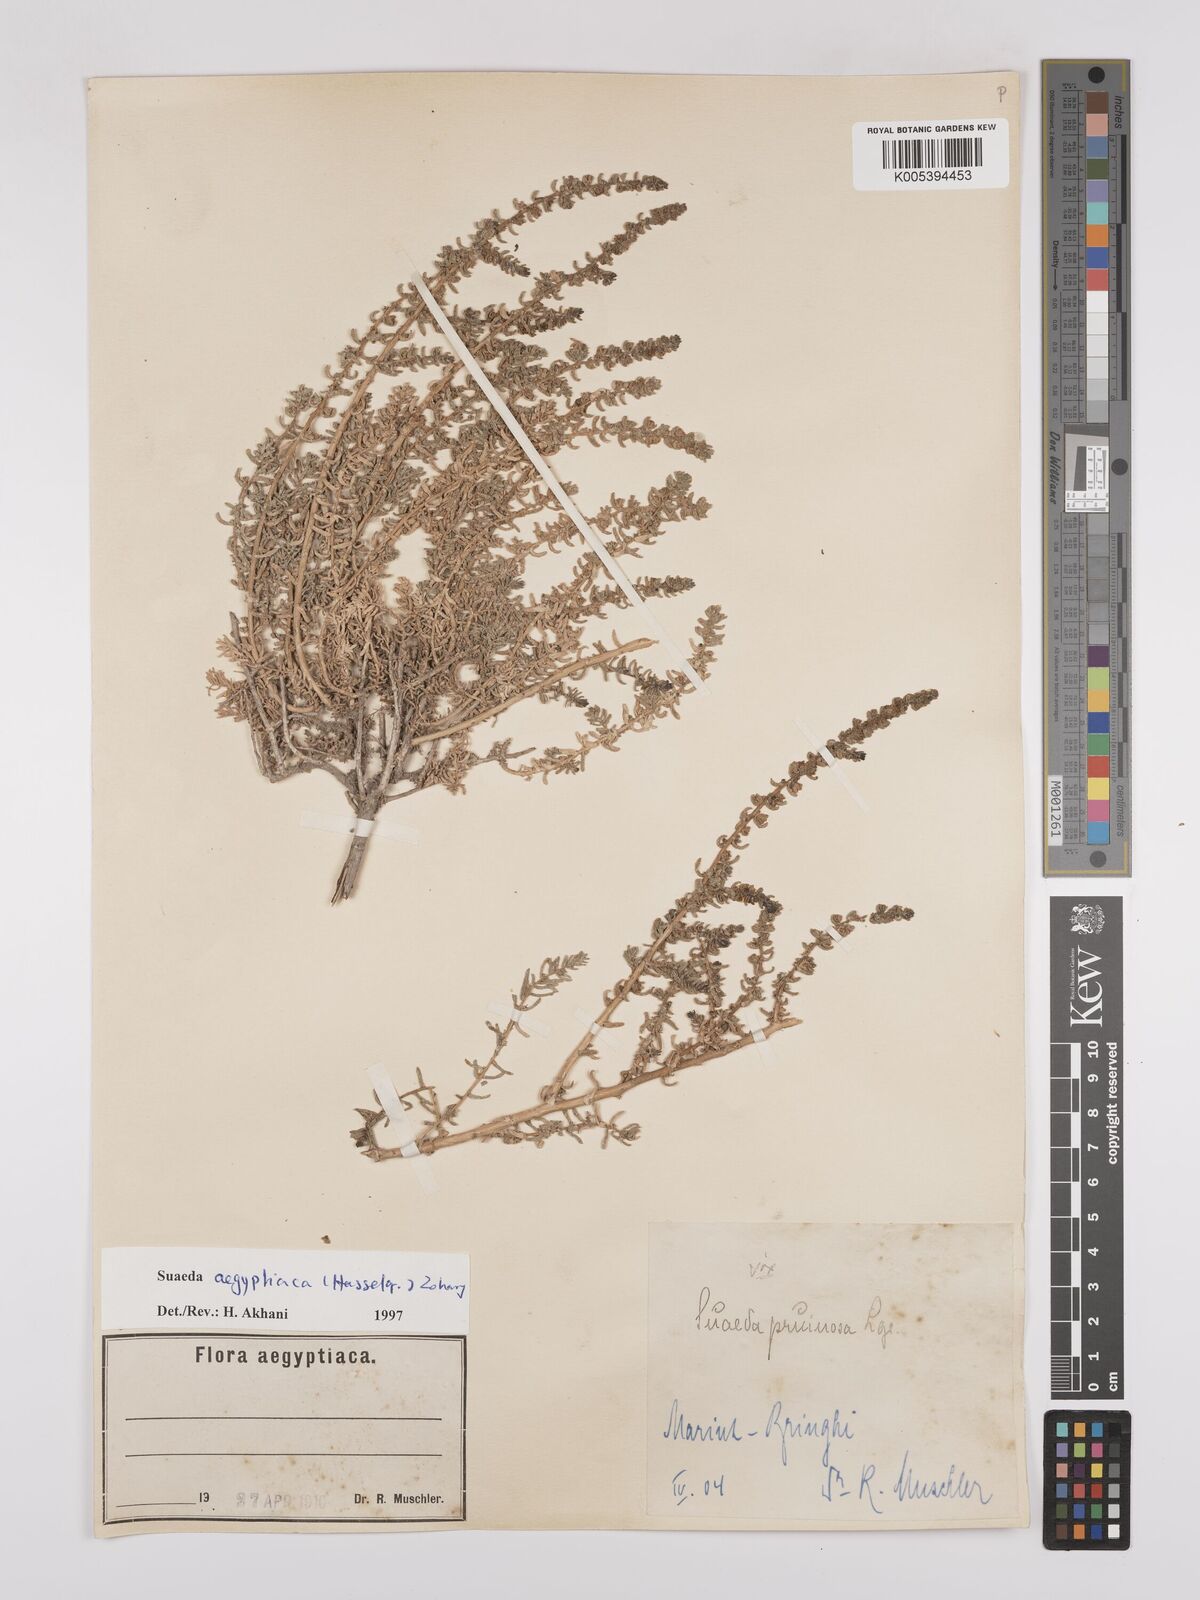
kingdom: Plantae
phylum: Tracheophyta
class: Magnoliopsida
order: Caryophyllales
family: Amaranthaceae
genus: Suaeda
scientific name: Suaeda aegyptiaca
